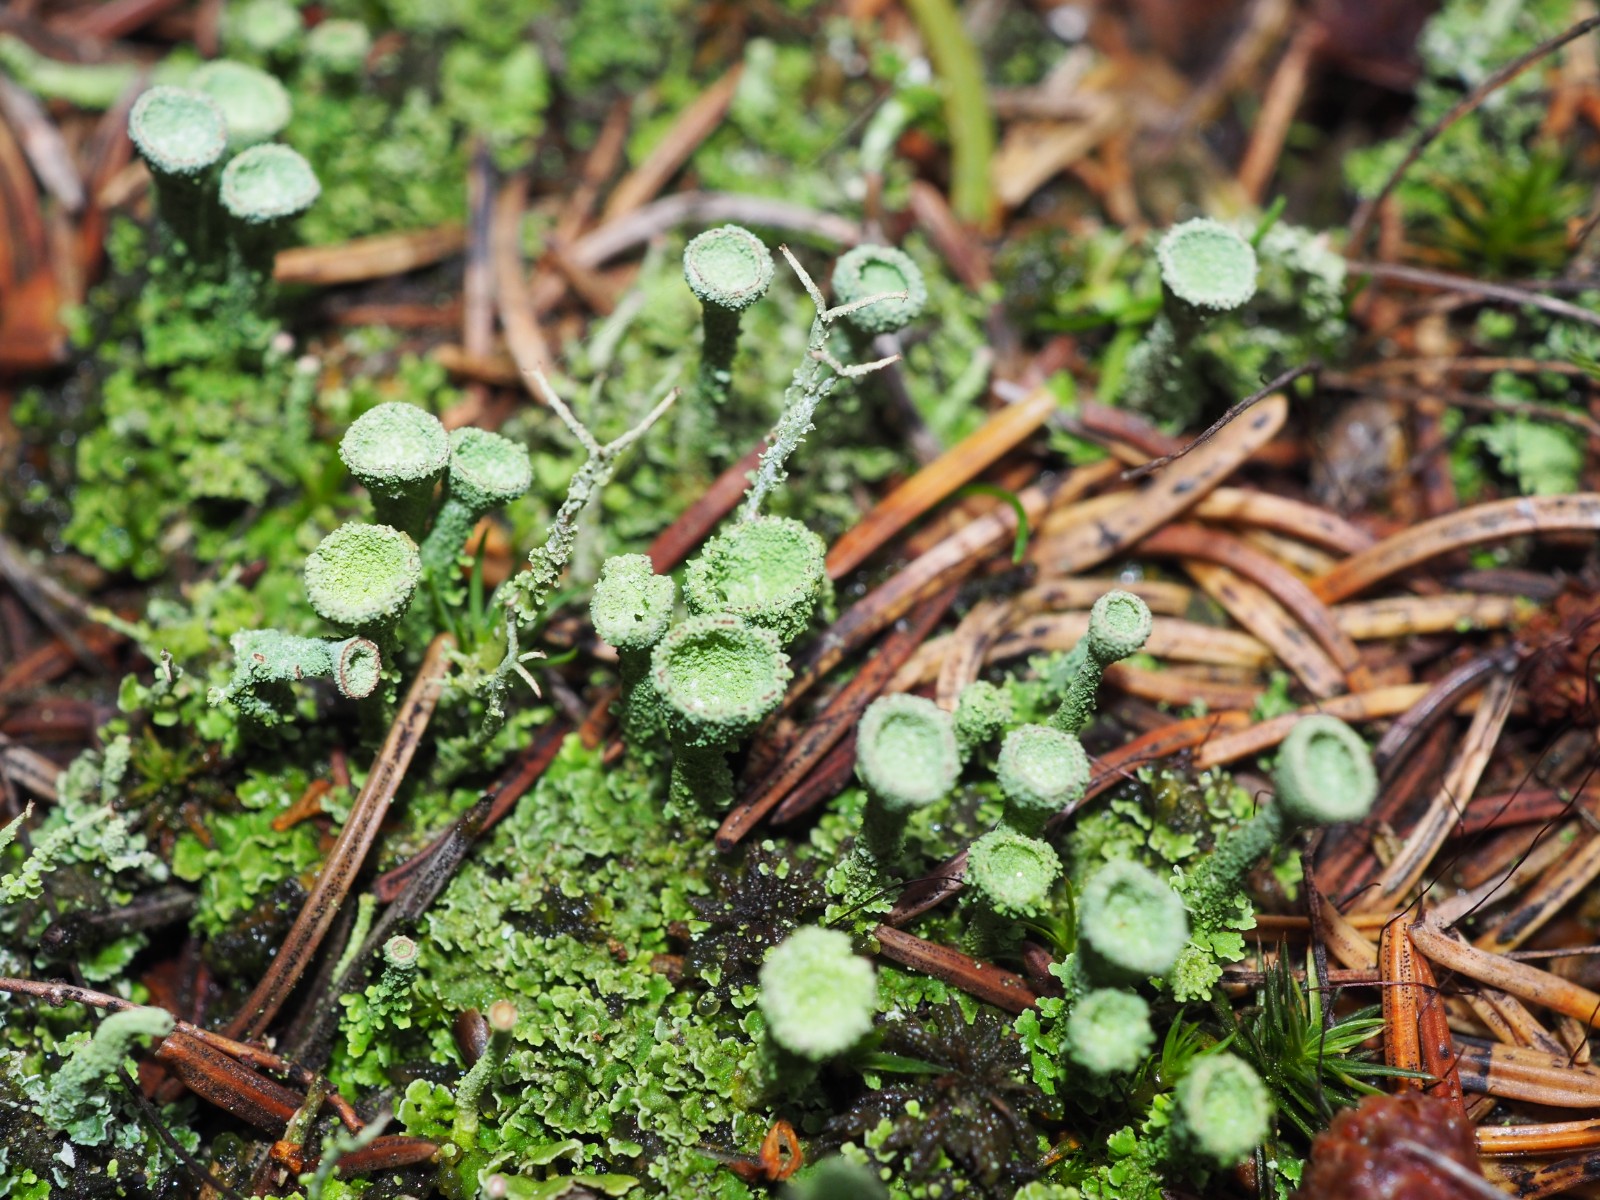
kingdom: Fungi
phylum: Ascomycota
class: Lecanoromycetes
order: Lecanorales
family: Cladoniaceae
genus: Cladonia
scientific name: Cladonia
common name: brungrøn bægerlav
